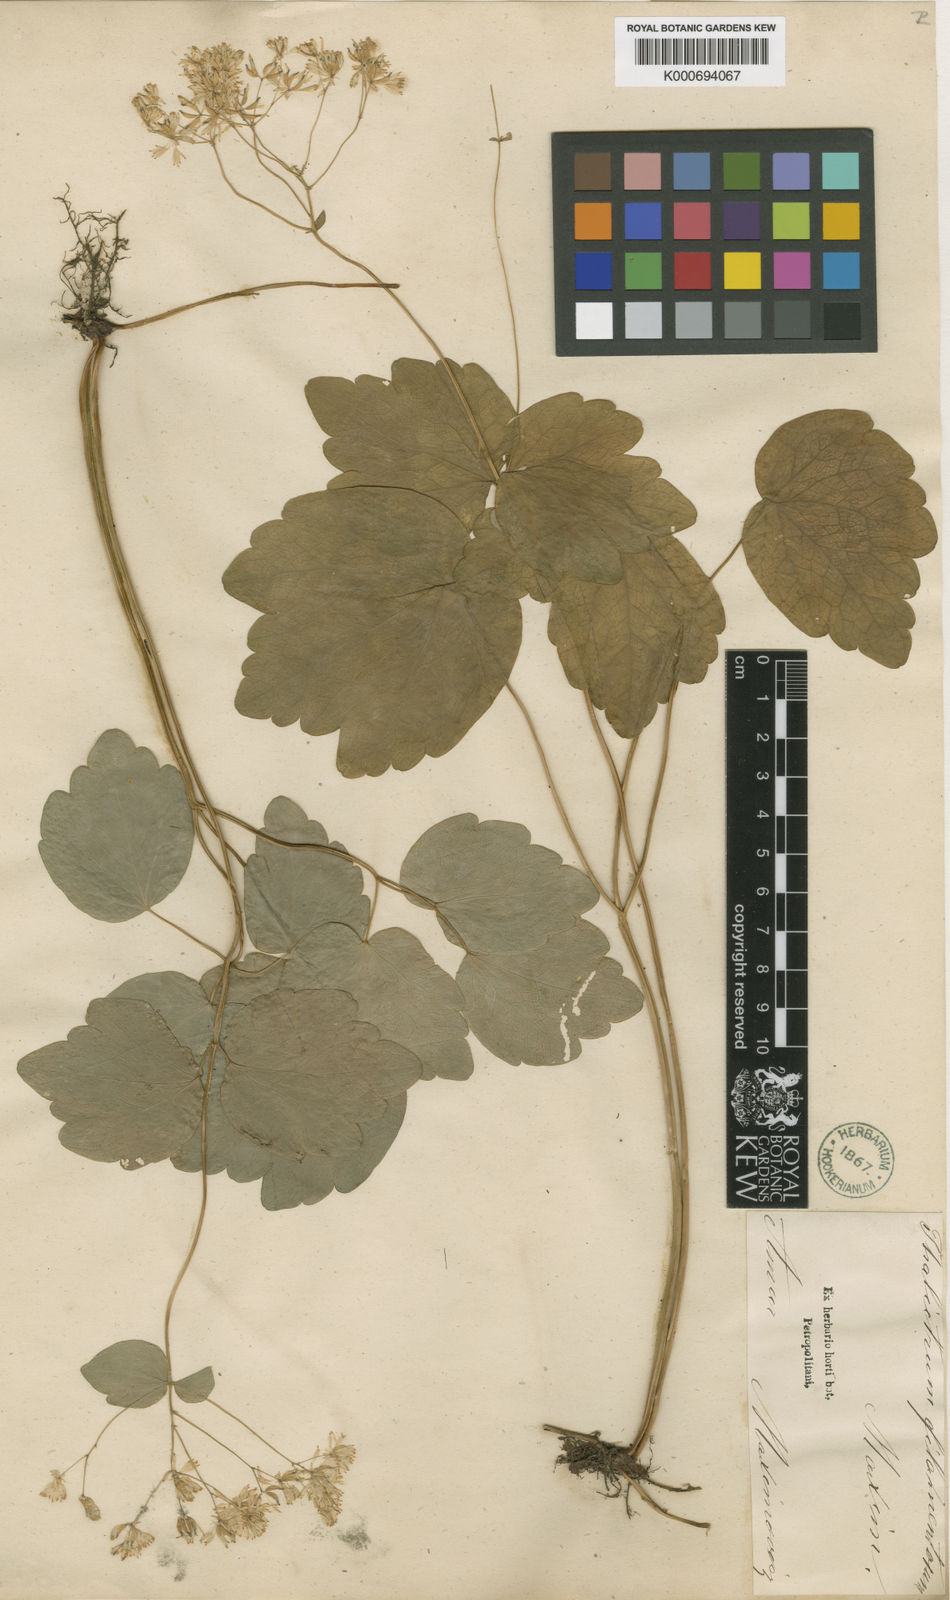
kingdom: Plantae
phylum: Tracheophyta
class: Magnoliopsida
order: Ranunculales
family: Ranunculaceae
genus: Thalictrum
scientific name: Thalictrum filamentosum
